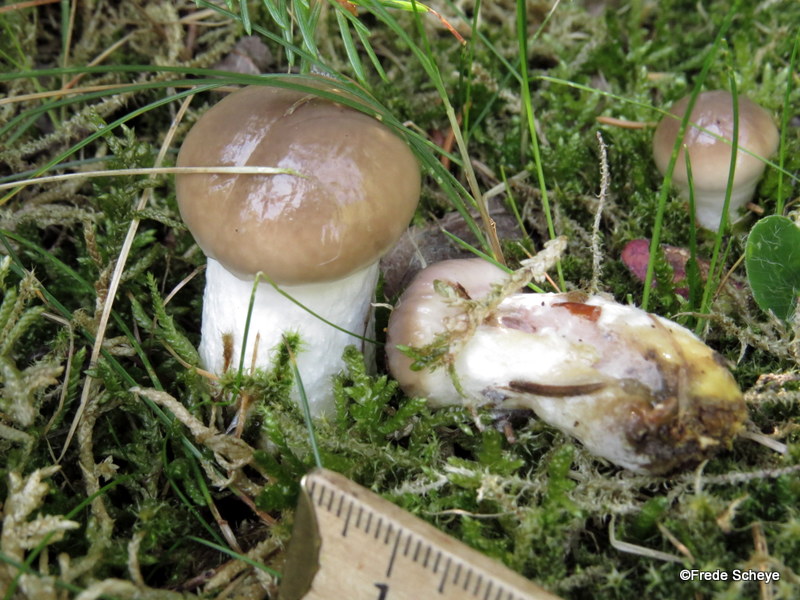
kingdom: Fungi
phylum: Basidiomycota
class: Agaricomycetes
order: Boletales
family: Gomphidiaceae
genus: Gomphidius
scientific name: Gomphidius glutinosus
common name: grå slimslør
